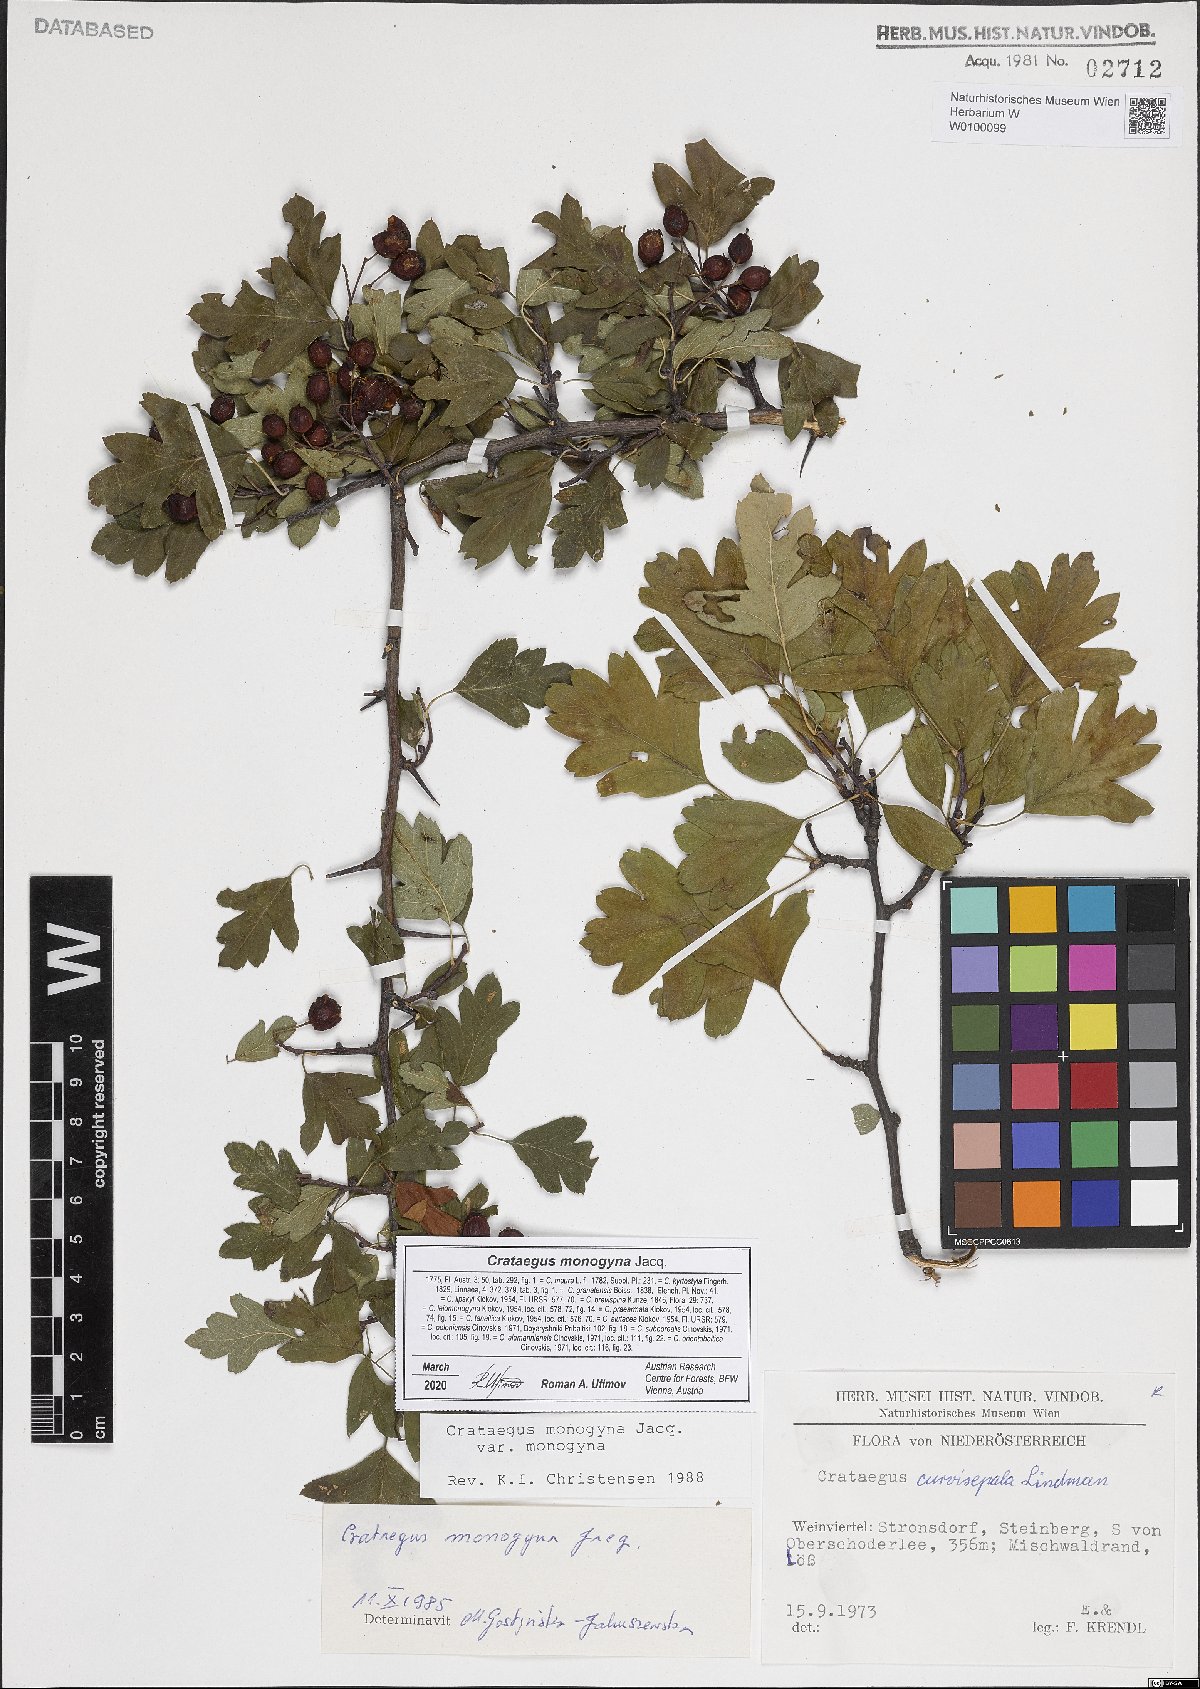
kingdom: Plantae
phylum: Tracheophyta
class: Magnoliopsida
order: Rosales
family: Rosaceae
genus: Crataegus
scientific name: Crataegus monogyna
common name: Hawthorn
